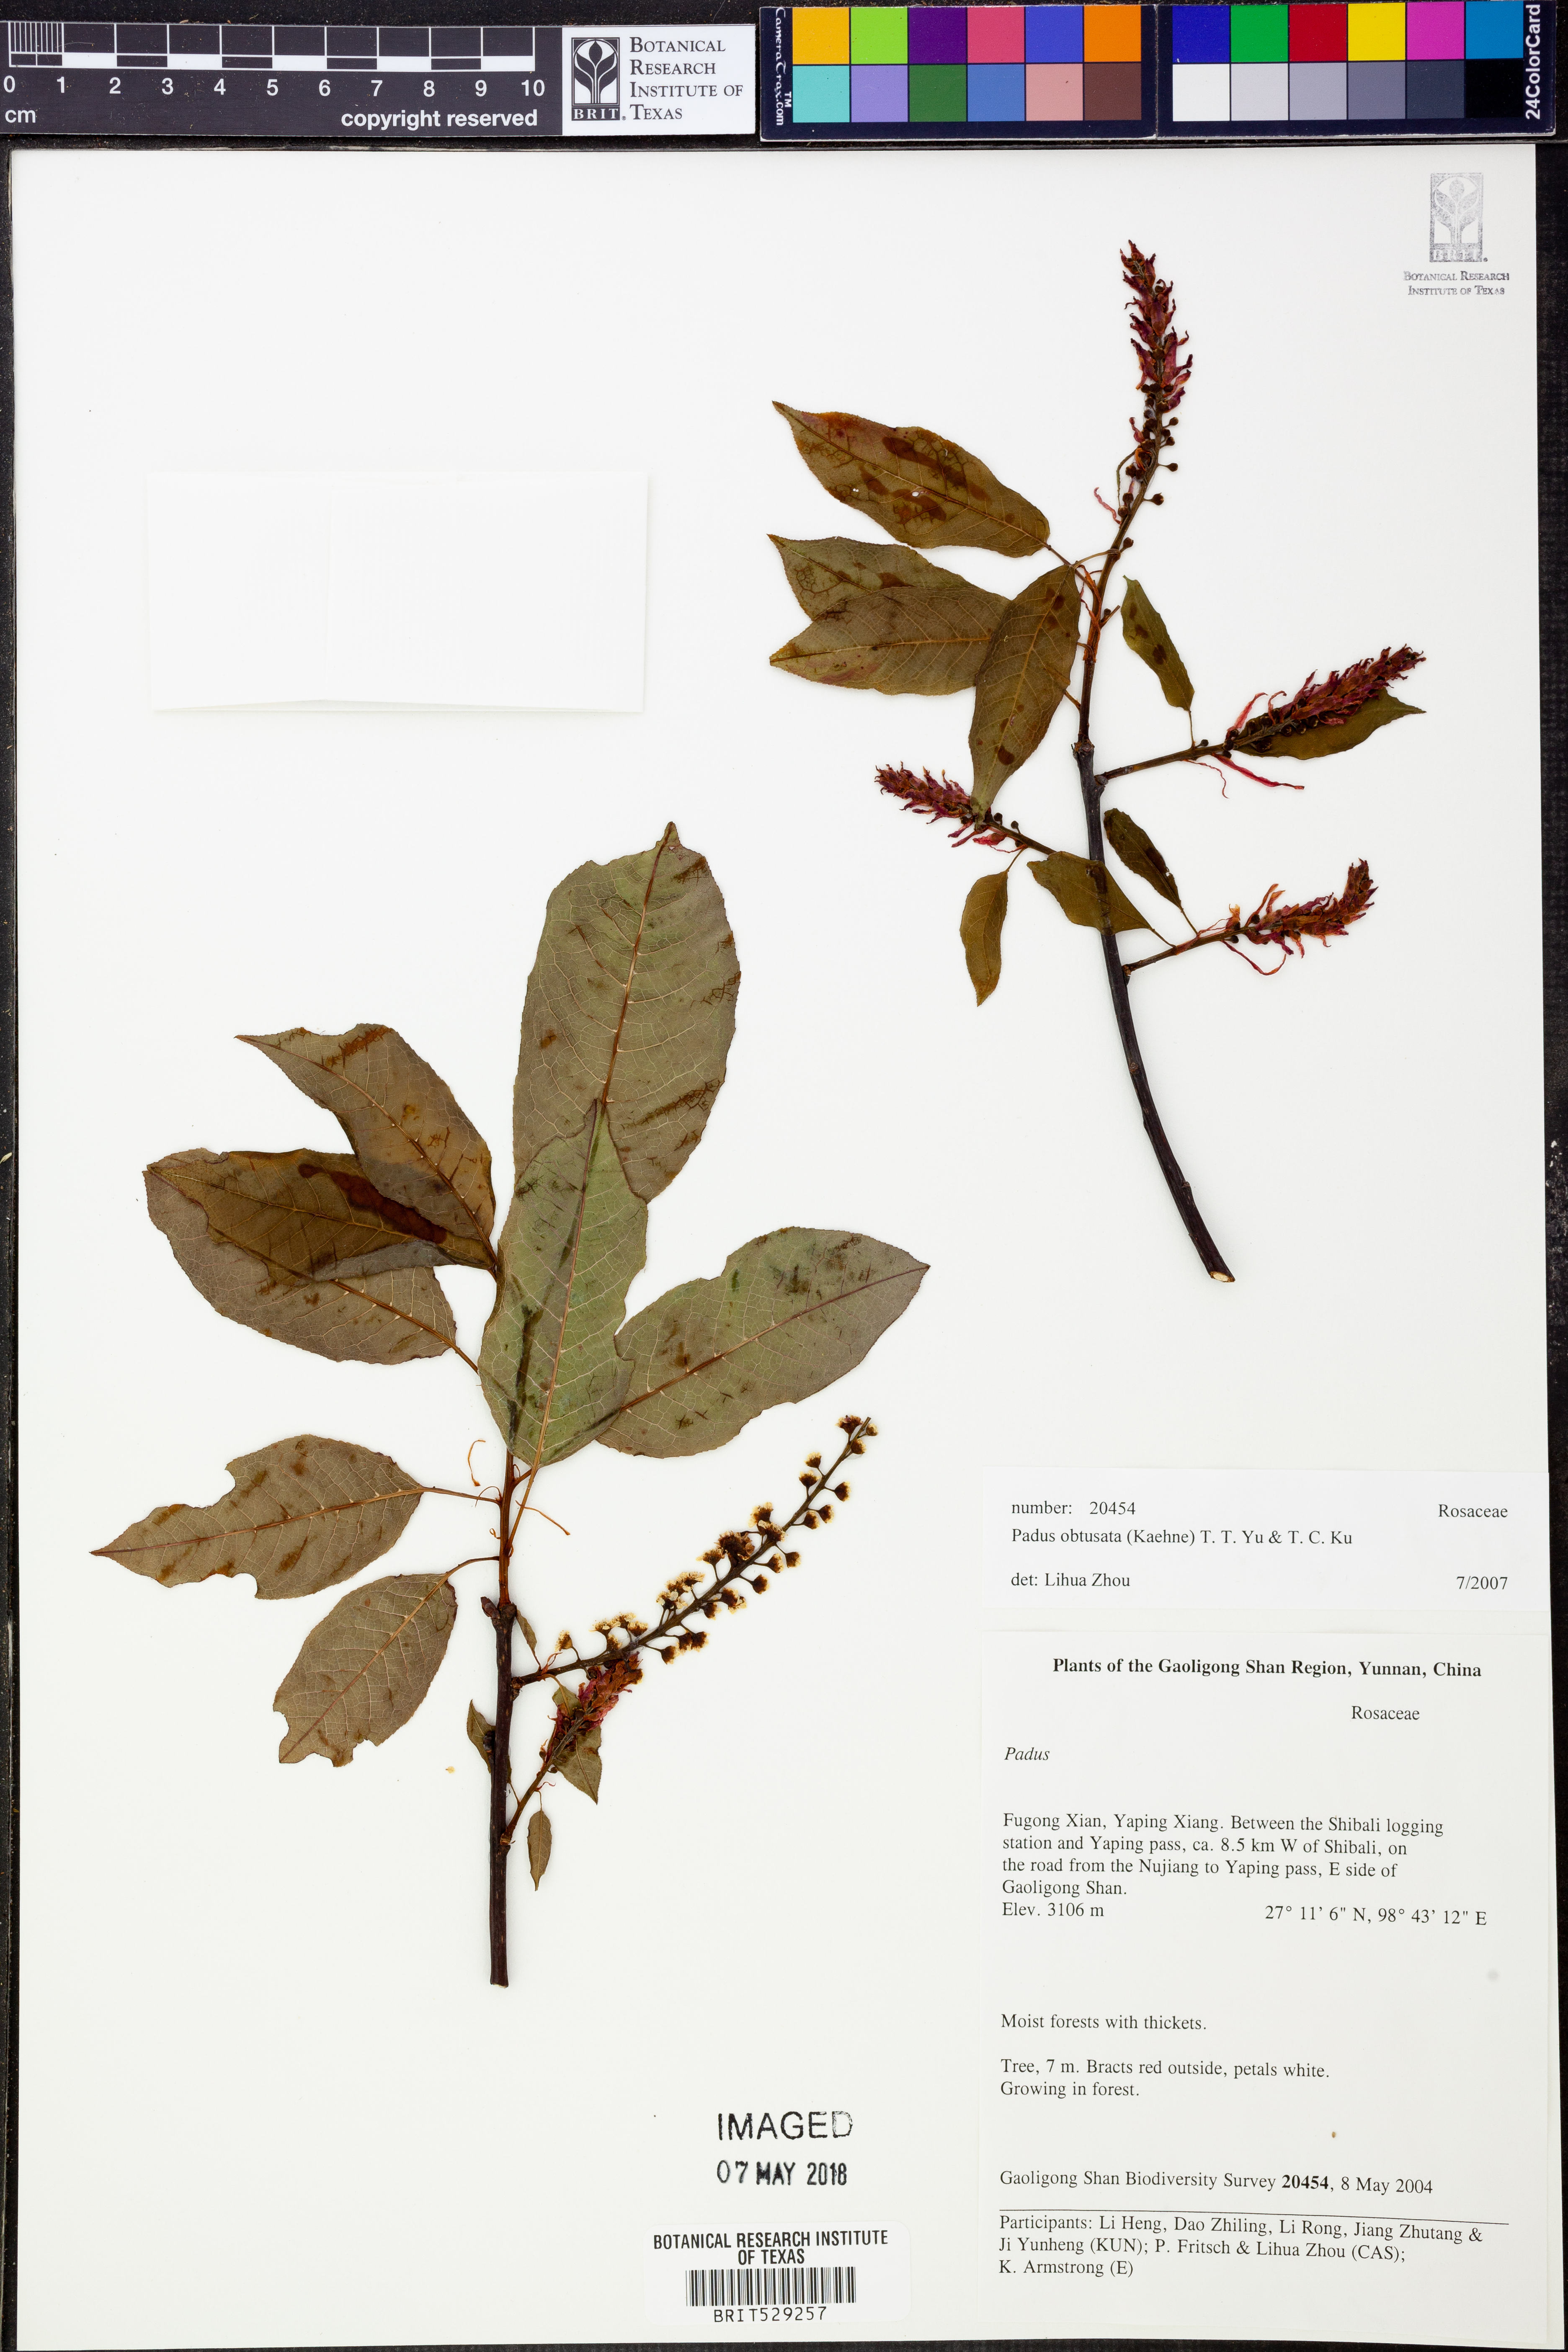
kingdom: Plantae
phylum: Tracheophyta
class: Magnoliopsida
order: Rosales
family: Rosaceae
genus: Prunus
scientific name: Prunus obtusata
